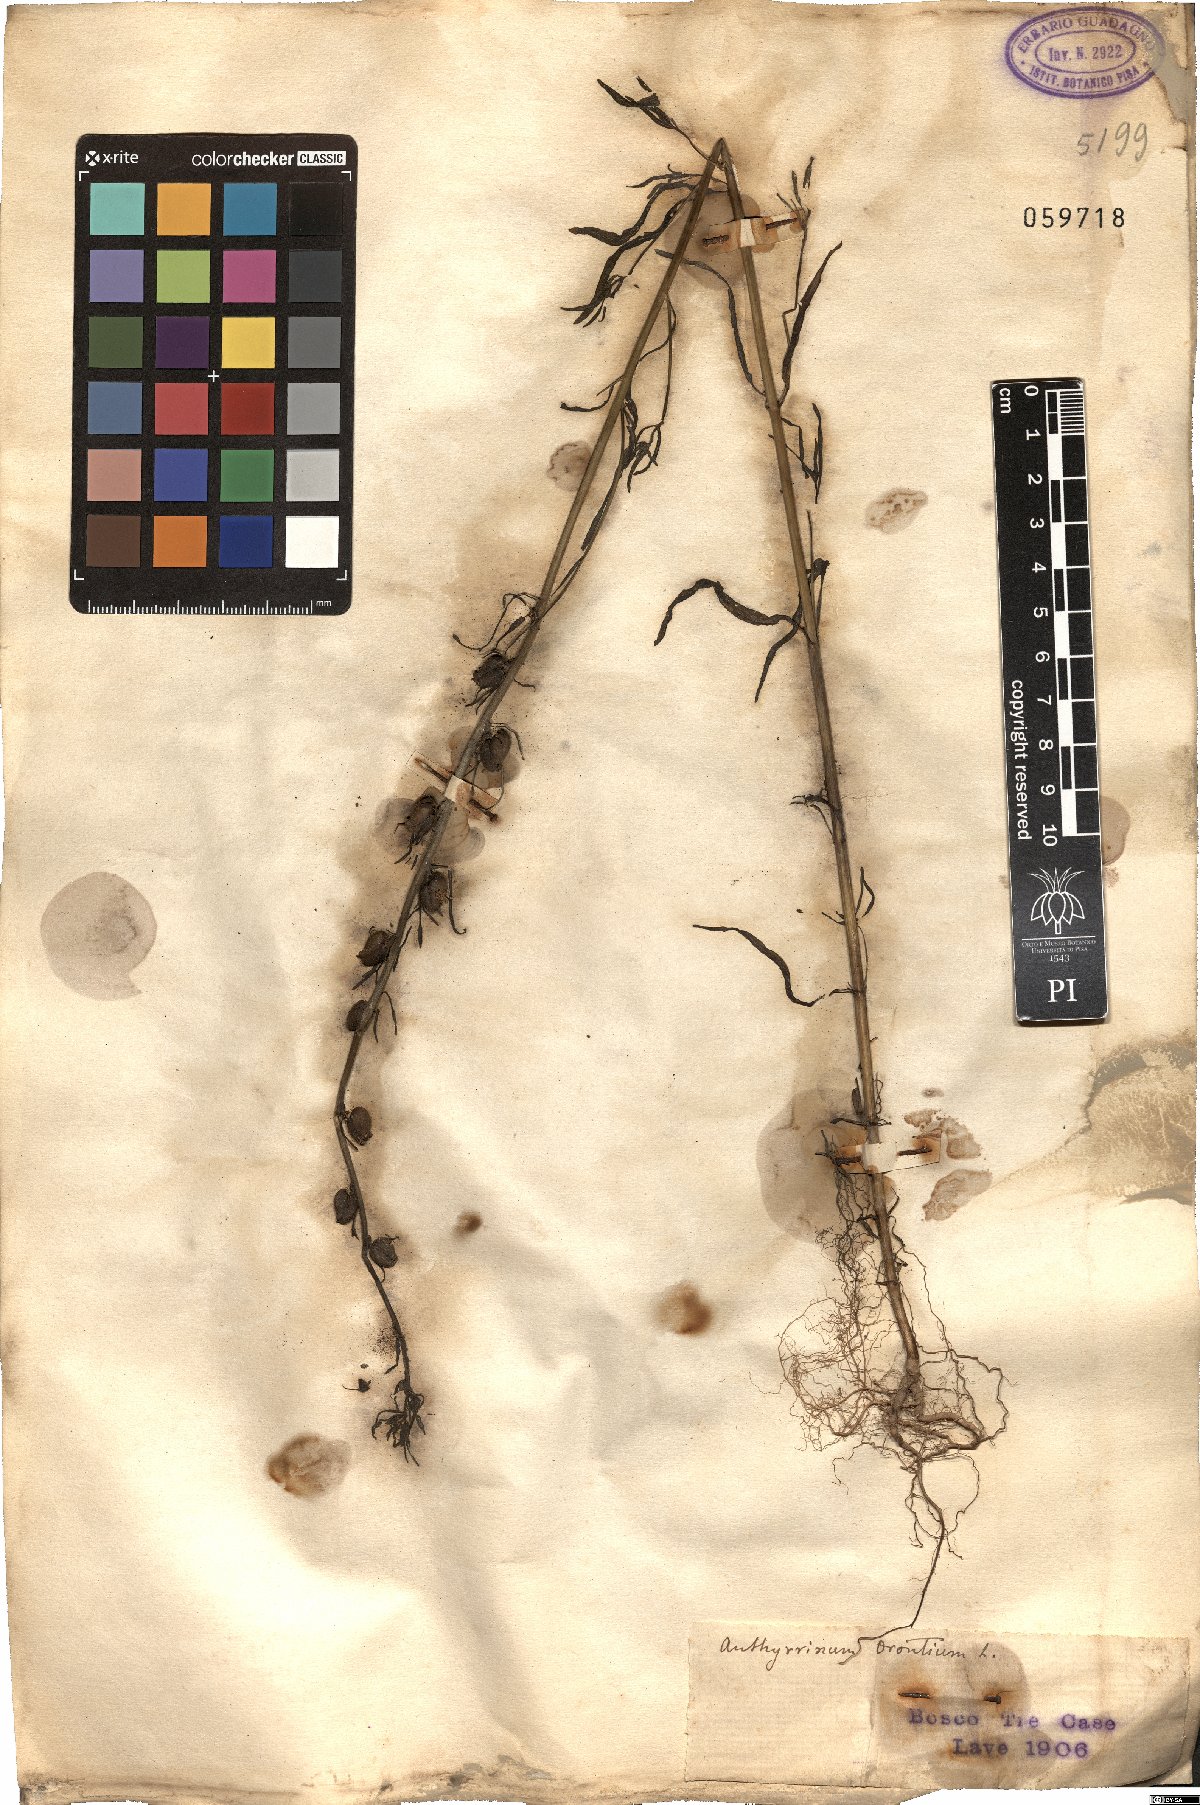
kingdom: Plantae
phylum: Tracheophyta
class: Magnoliopsida
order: Lamiales
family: Plantaginaceae
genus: Misopates
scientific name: Misopates orontium
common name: Weasel's-snout
